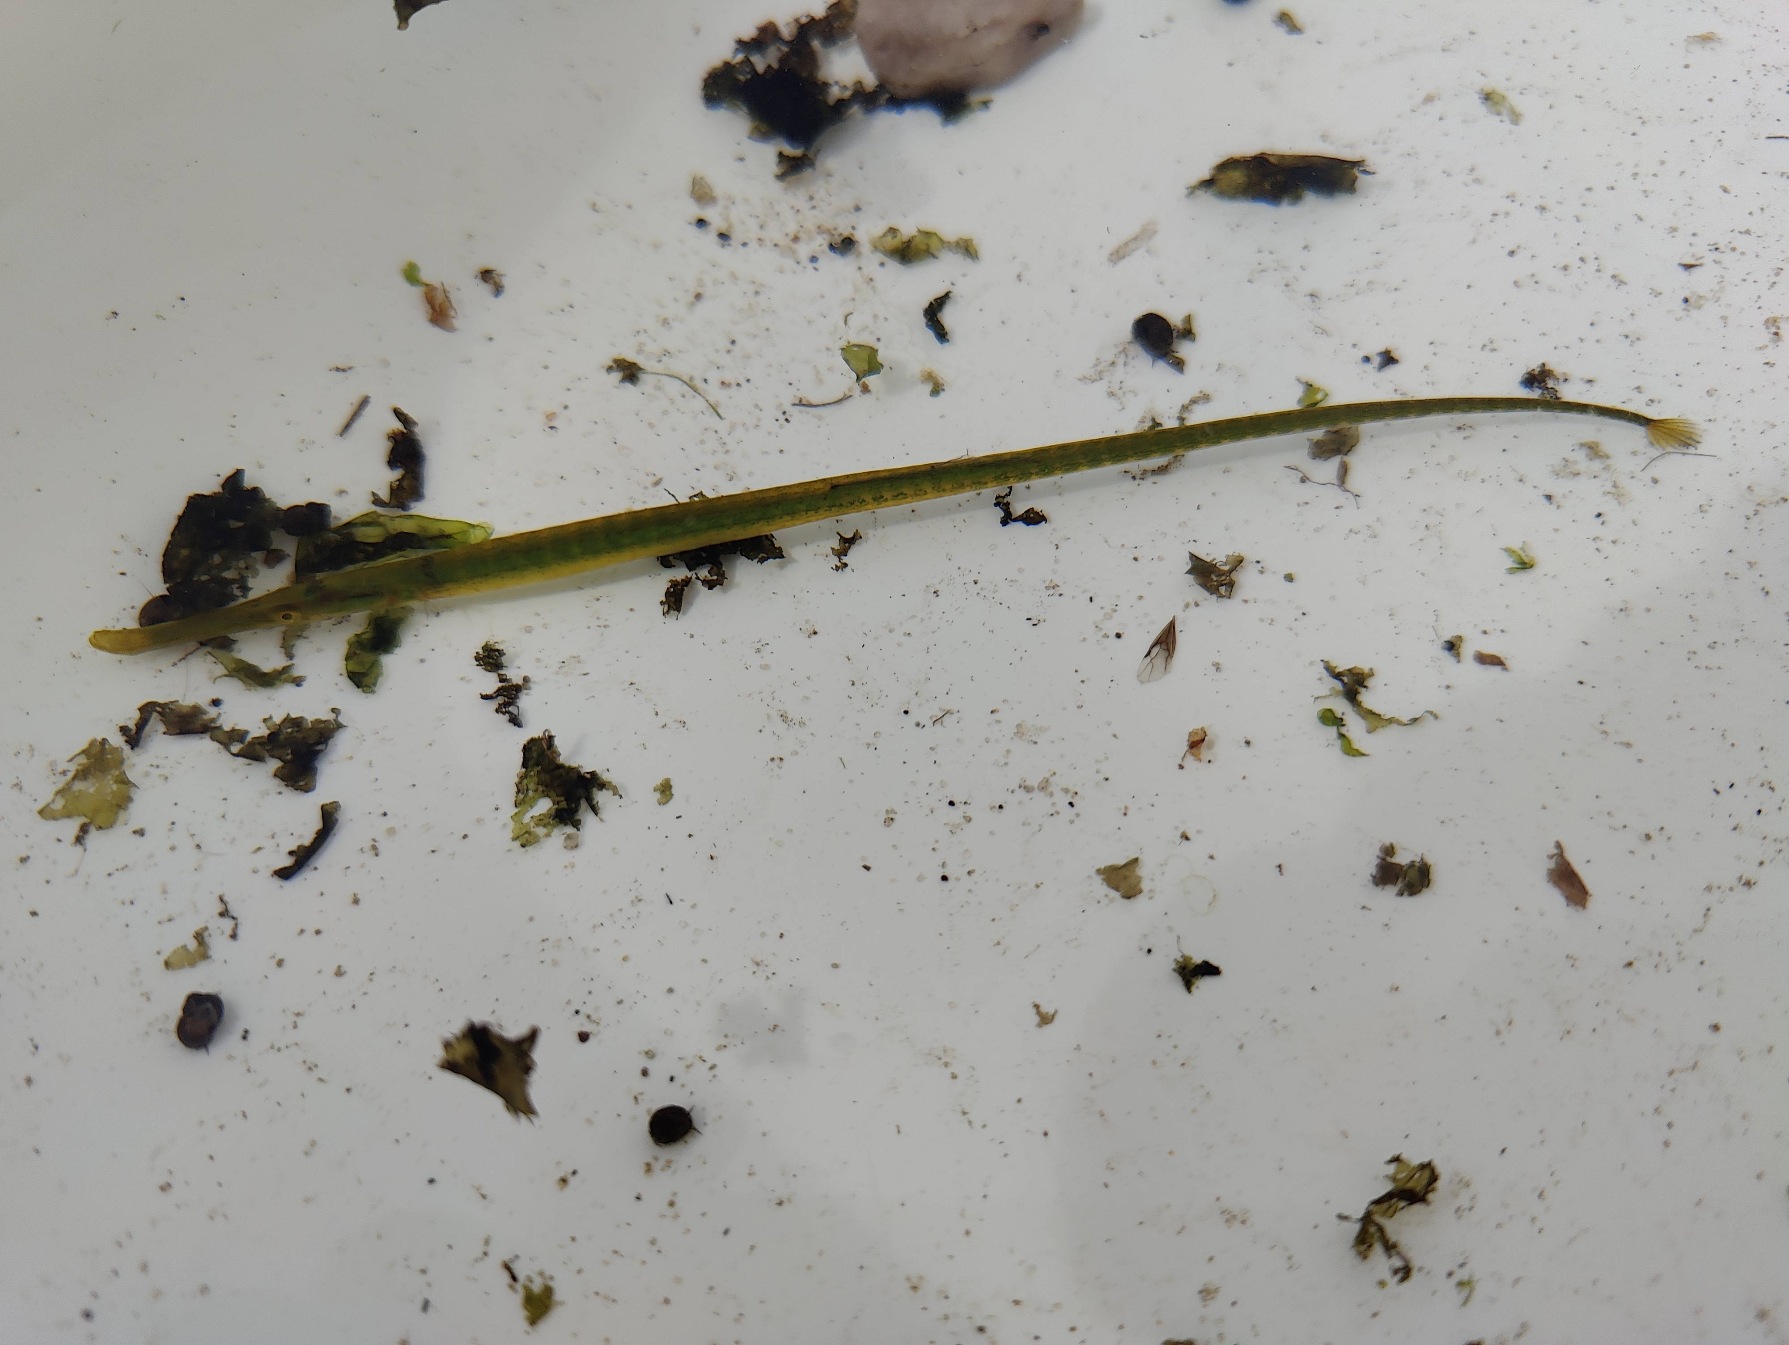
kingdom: Animalia
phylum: Chordata
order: Syngnathiformes
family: Syngnathidae
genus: Syngnathus
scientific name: Syngnathus typhle
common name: Almindelig tangnål
